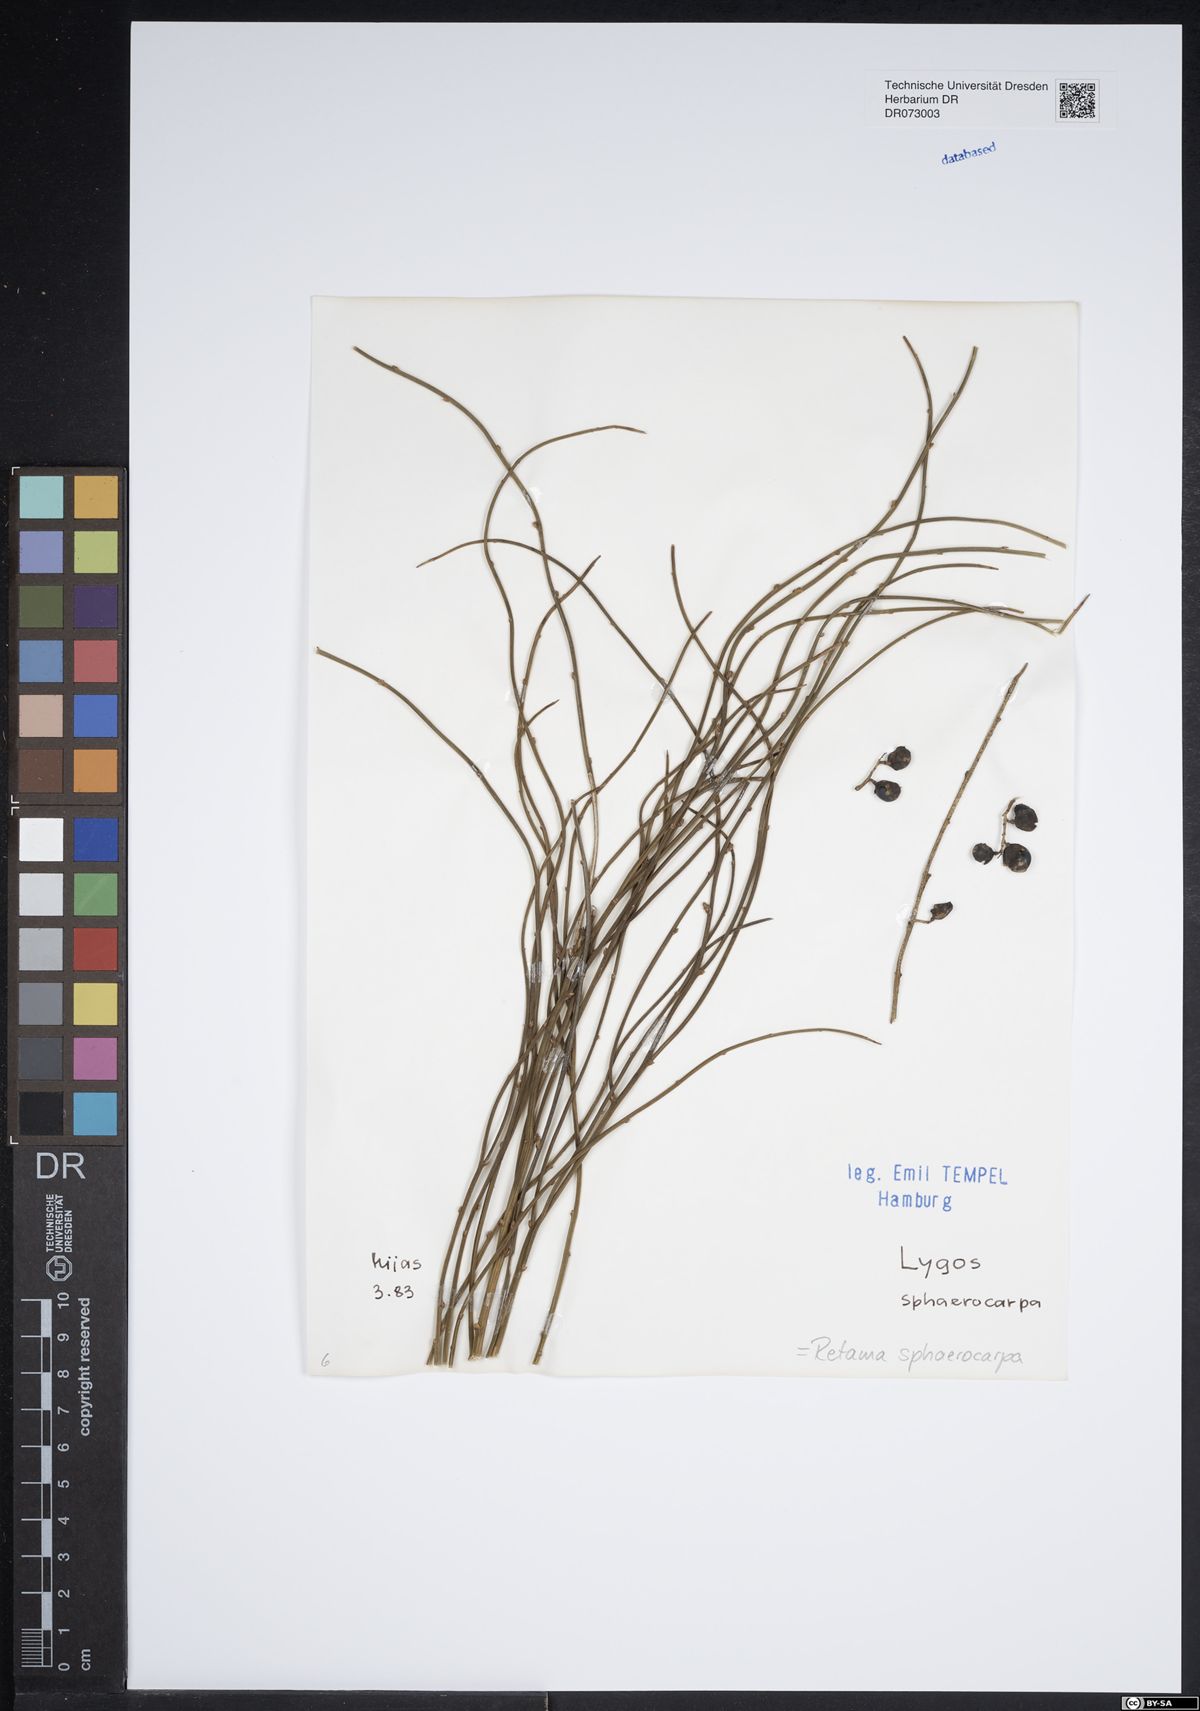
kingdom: Plantae
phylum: Tracheophyta
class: Magnoliopsida
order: Fabales
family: Fabaceae
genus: Retama
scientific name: Retama sphaerocarpa
